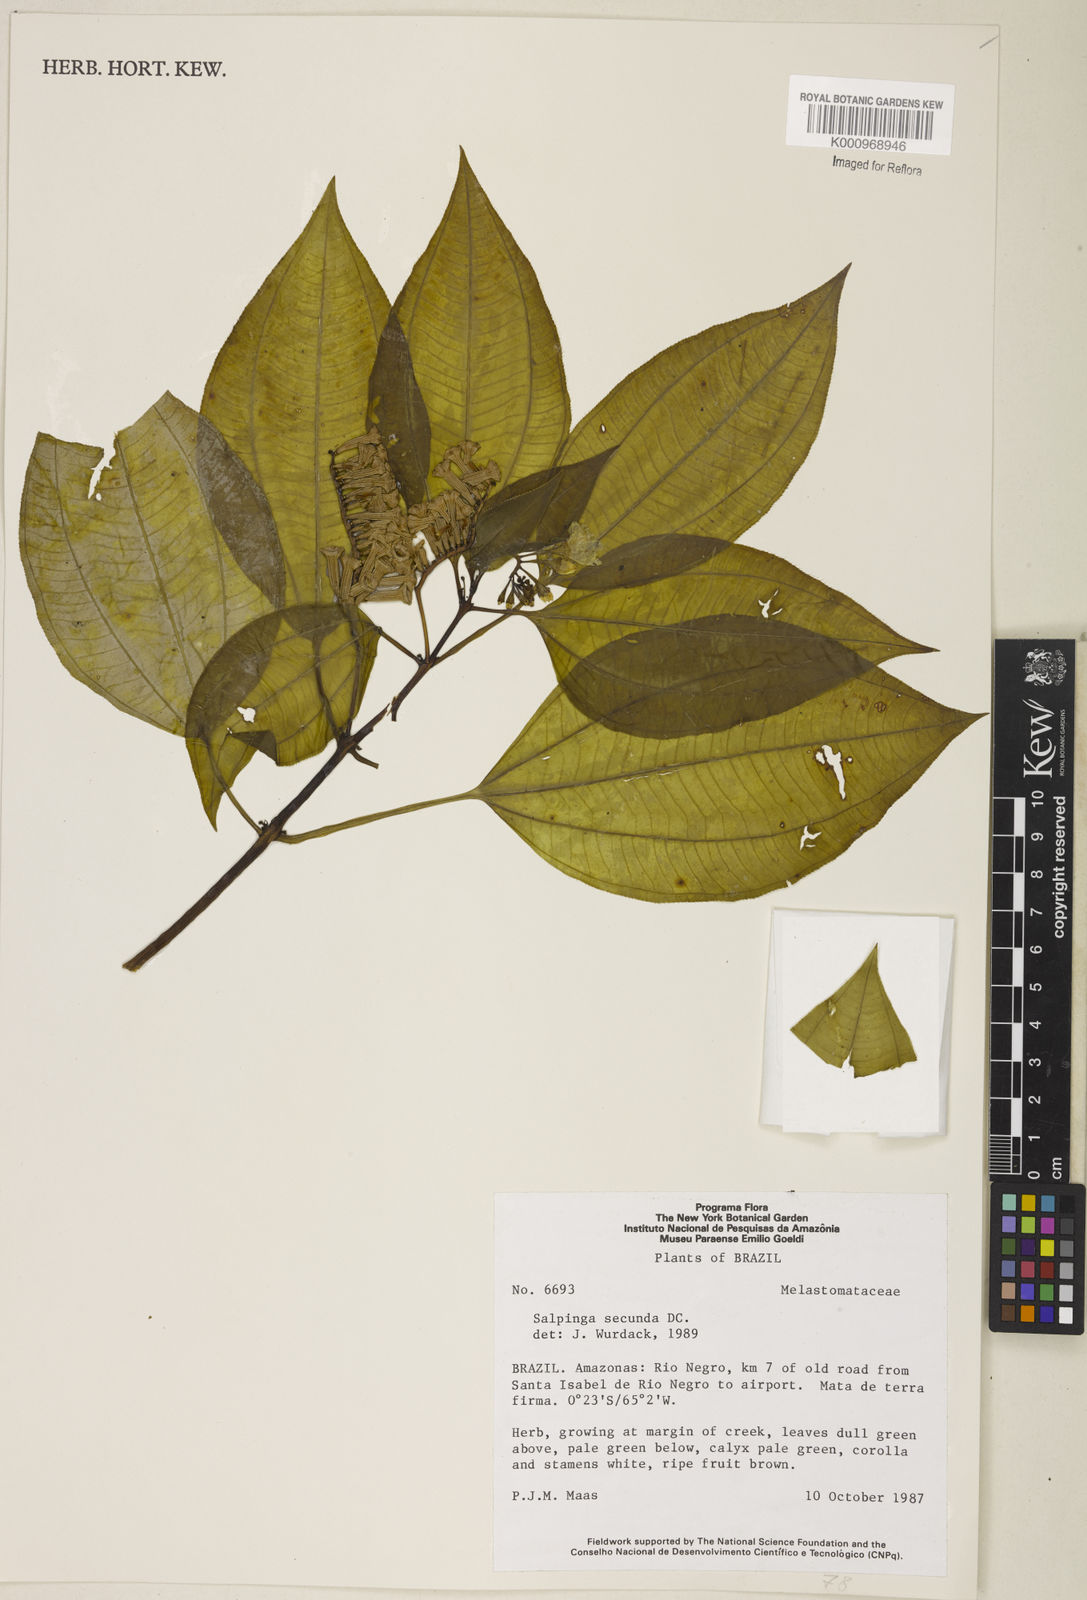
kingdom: Plantae
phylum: Tracheophyta
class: Magnoliopsida
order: Myrtales
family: Melastomataceae
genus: Salpinga
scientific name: Salpinga secunda
